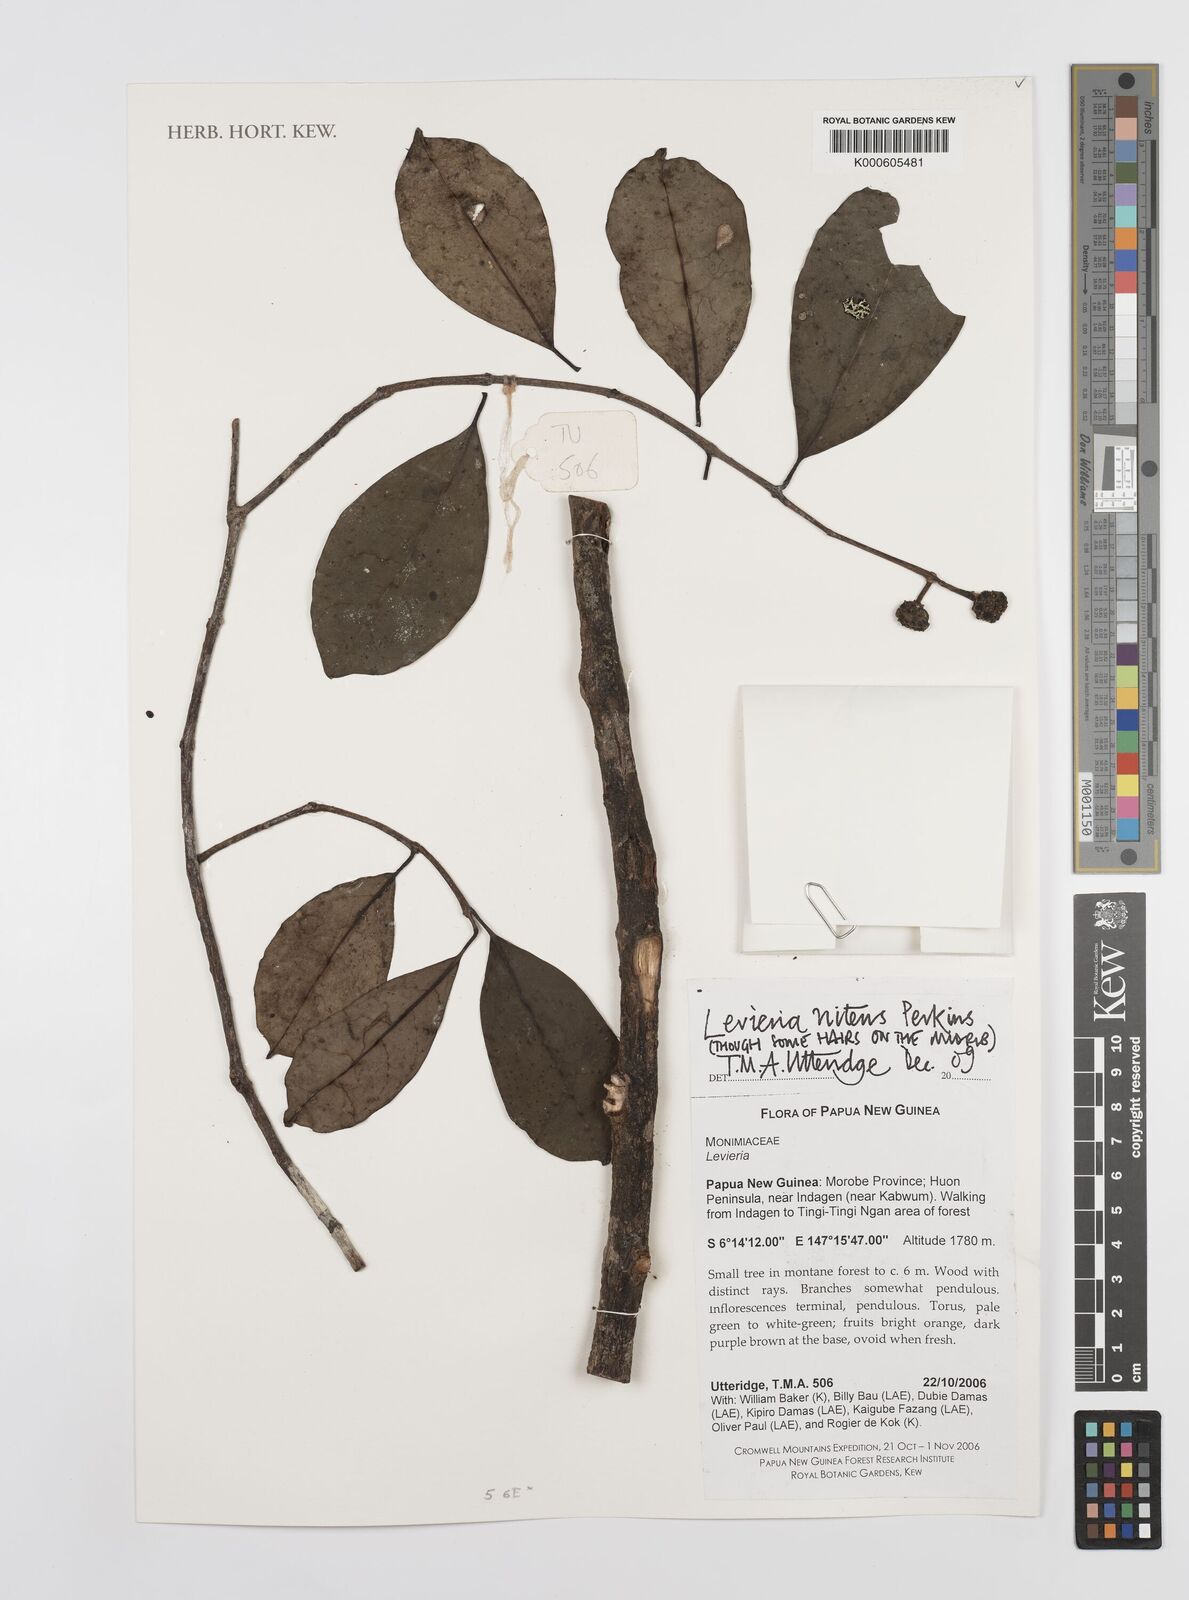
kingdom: Plantae
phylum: Tracheophyta
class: Magnoliopsida
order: Laurales
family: Monimiaceae
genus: Levieria
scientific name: Levieria nitens
